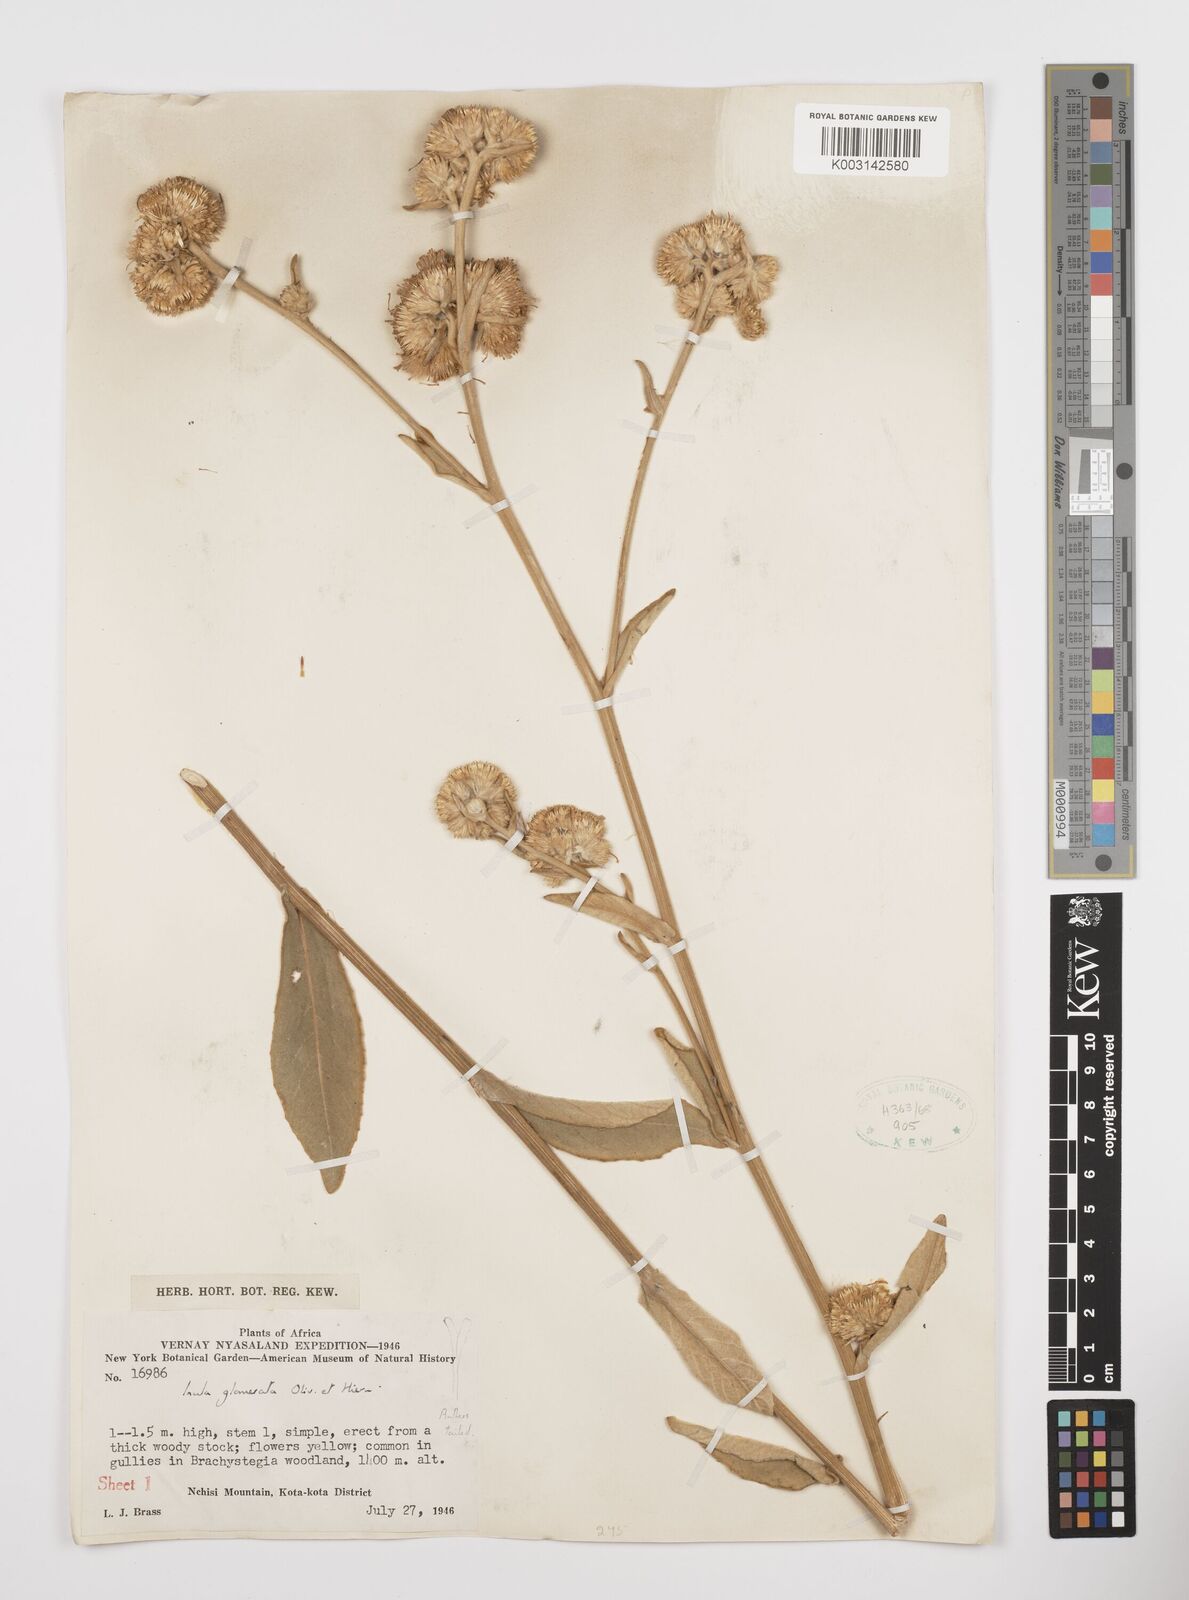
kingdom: Plantae
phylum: Tracheophyta
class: Magnoliopsida
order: Asterales
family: Asteraceae
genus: Inula
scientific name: Inula glomerata
